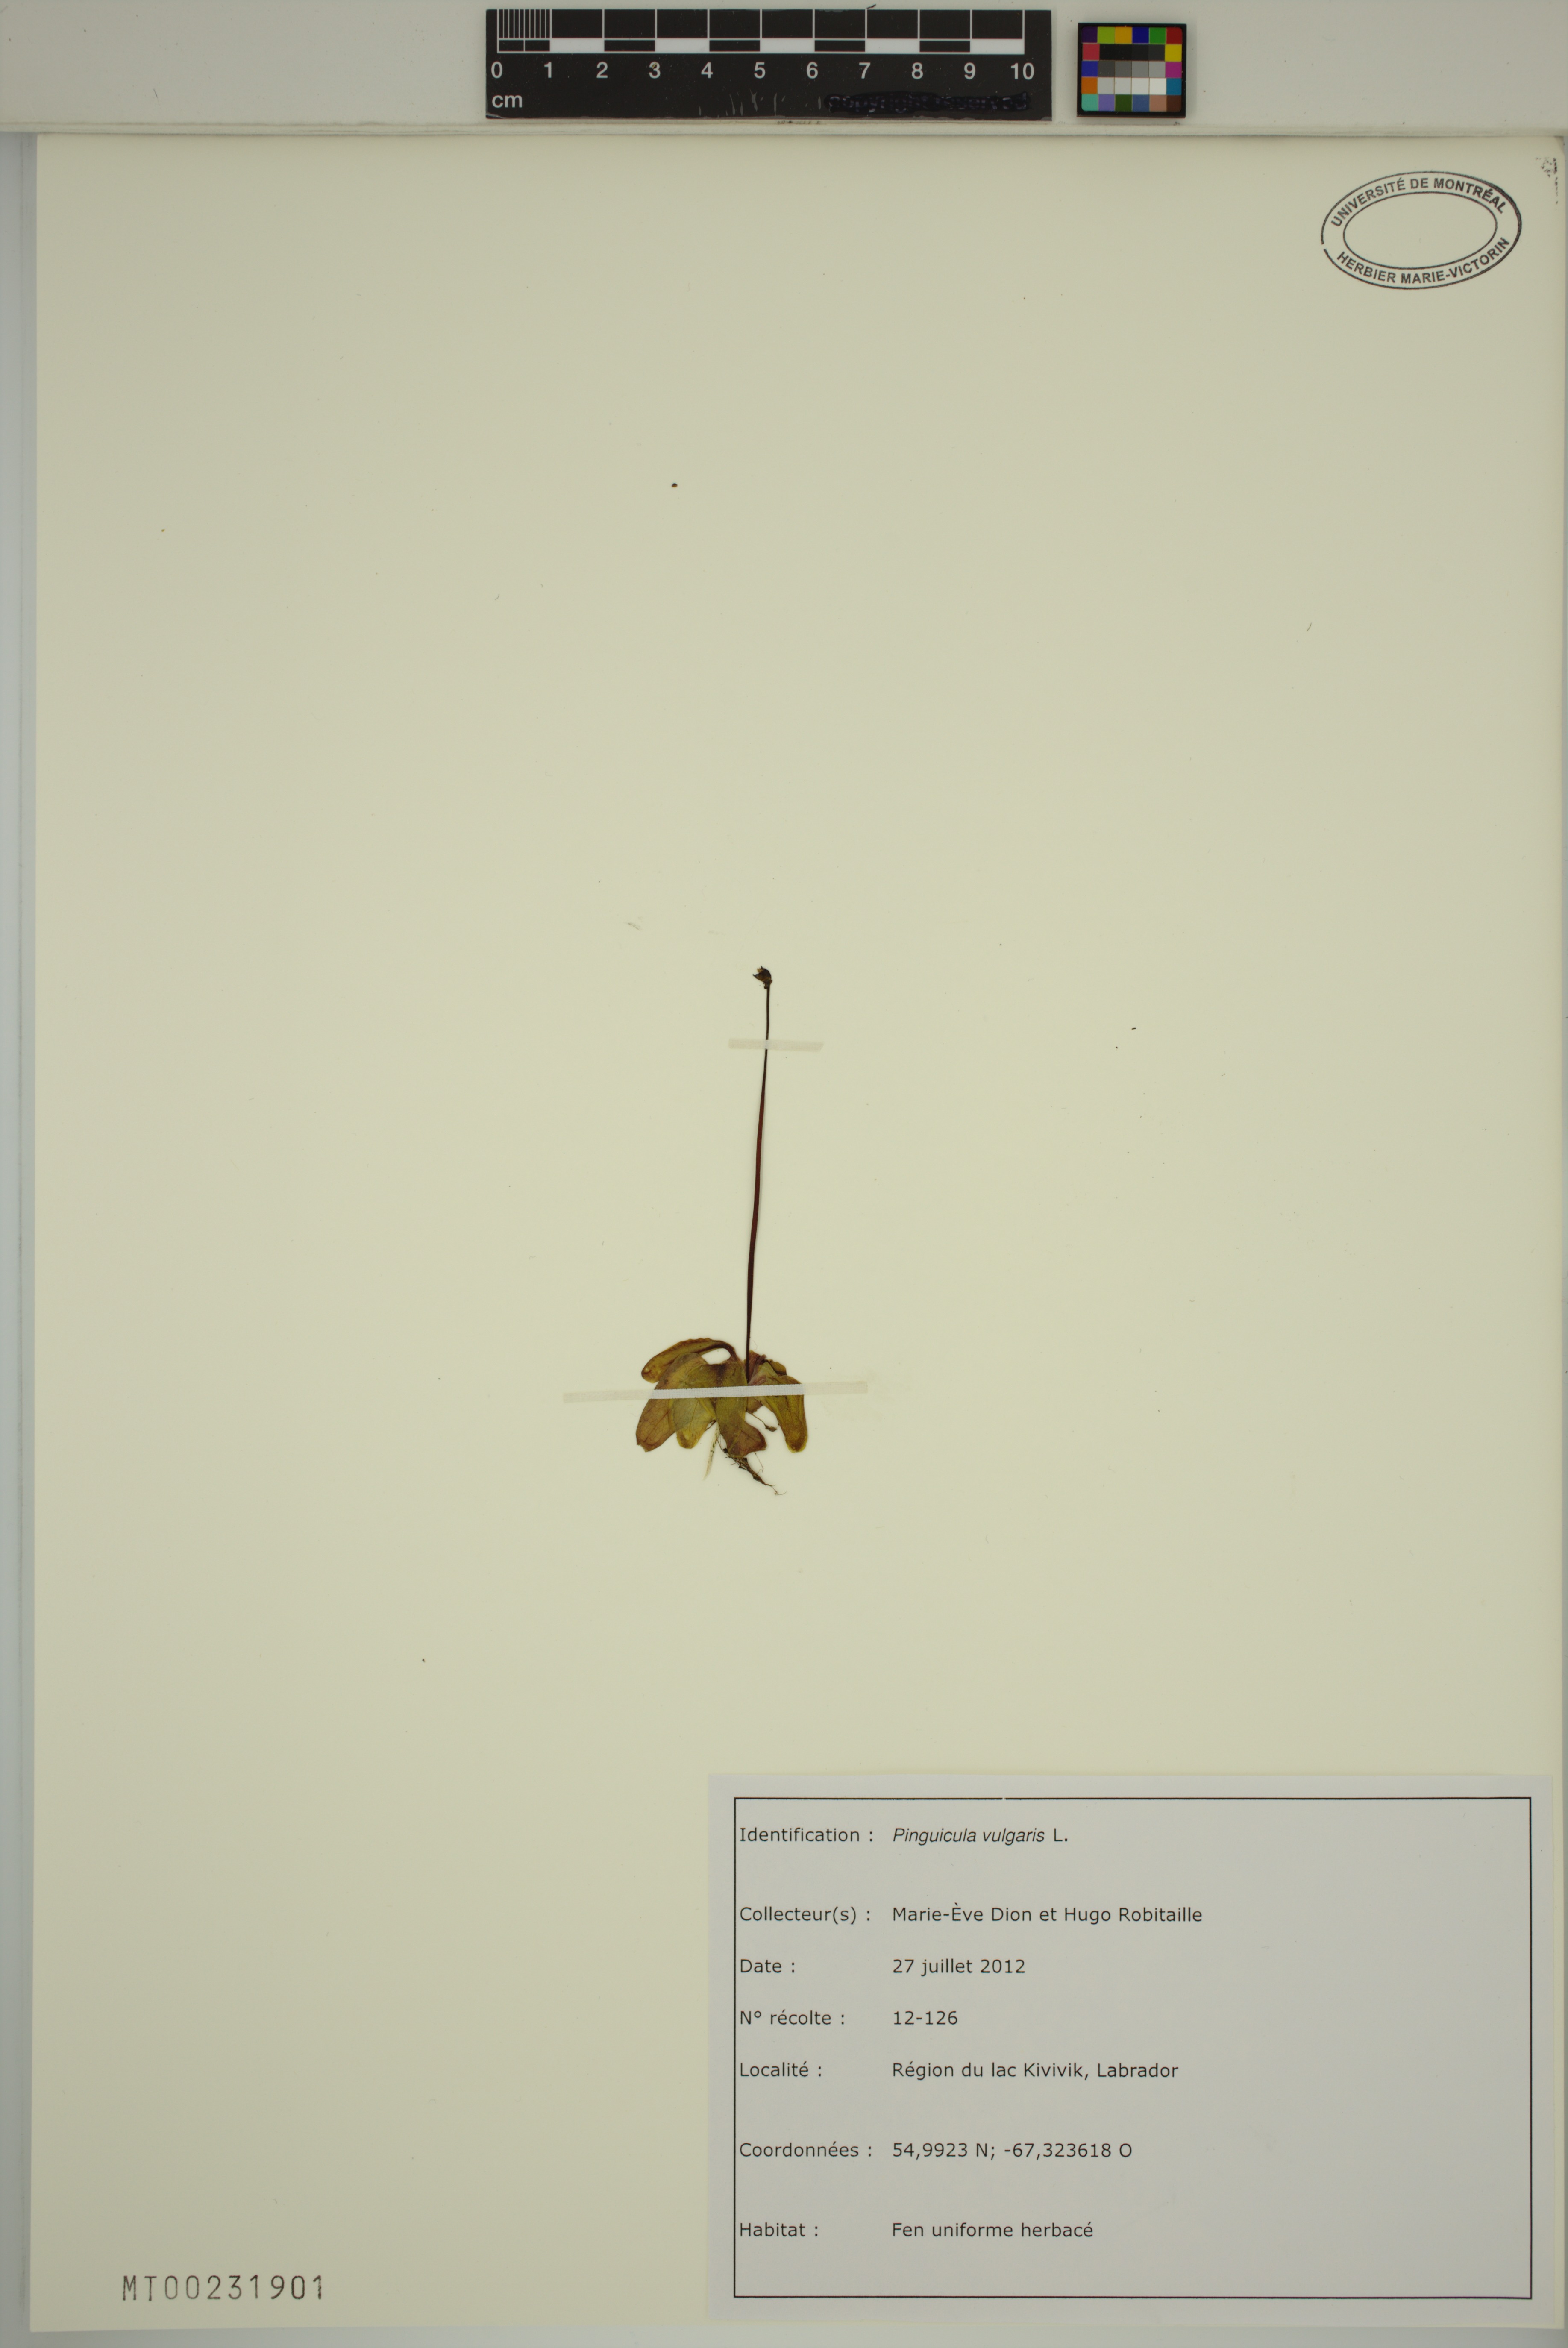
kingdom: Plantae
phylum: Tracheophyta
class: Magnoliopsida
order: Lamiales
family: Lentibulariaceae
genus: Pinguicula
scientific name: Pinguicula vulgaris
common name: Common butterwort
